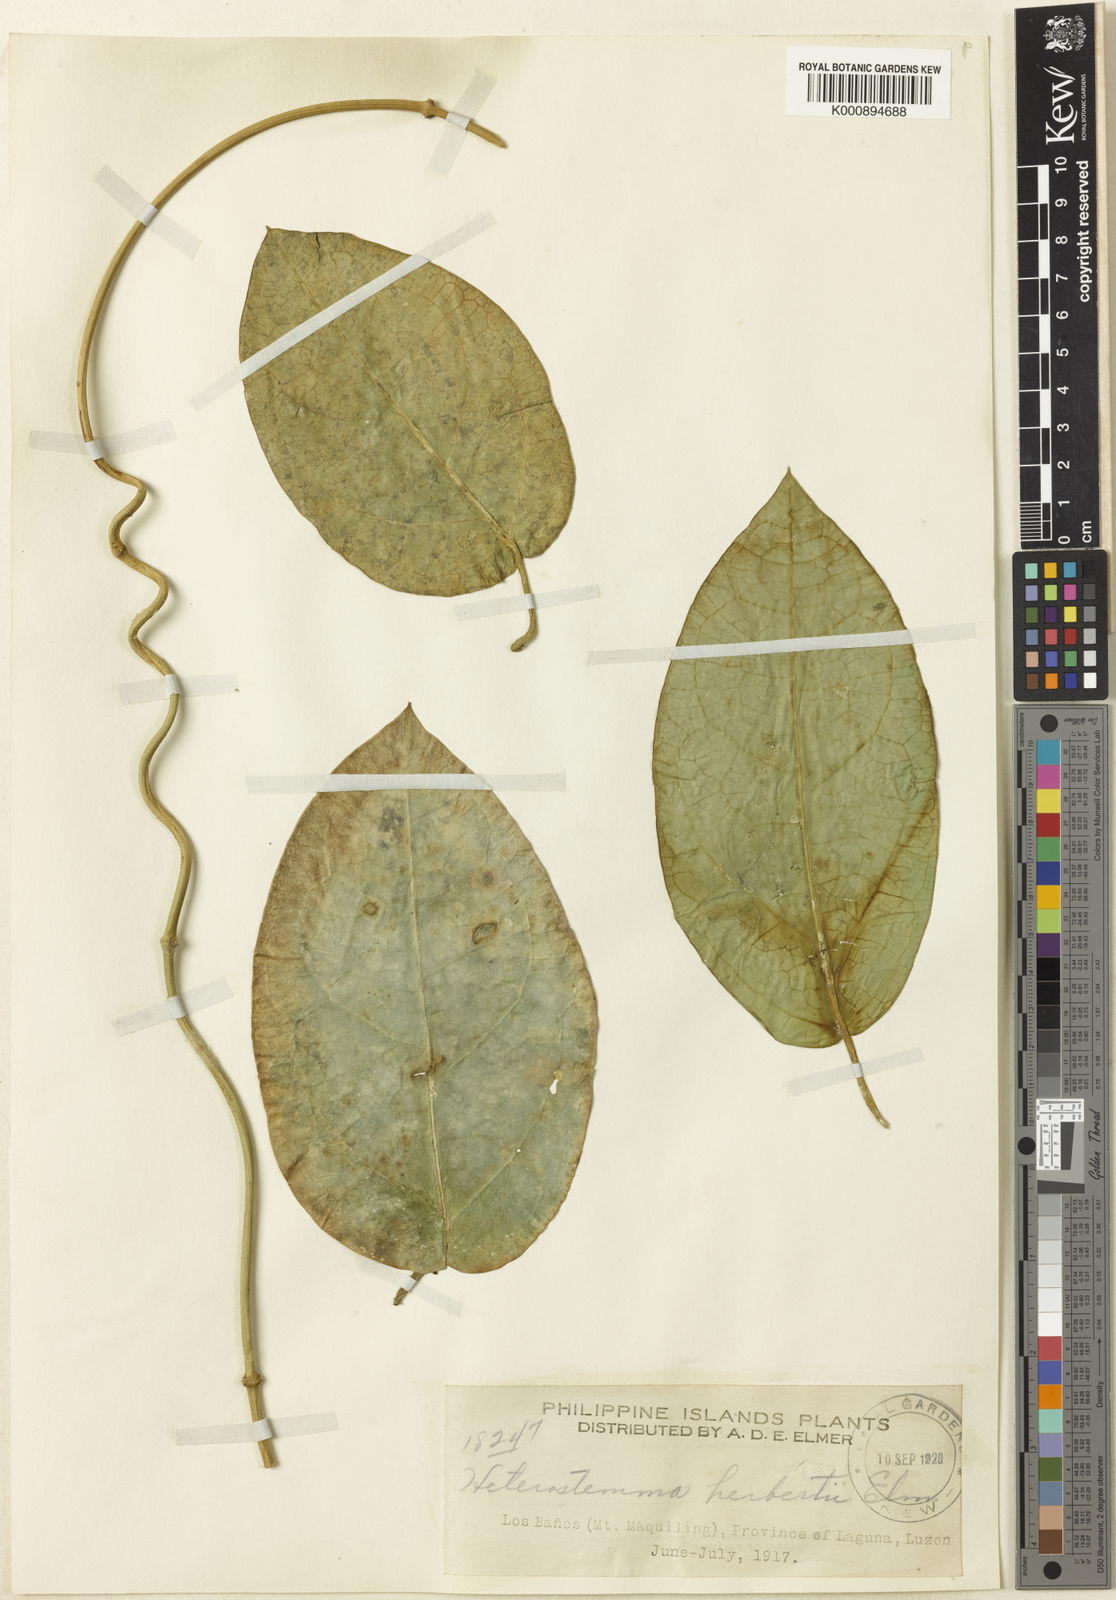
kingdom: Plantae
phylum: Tracheophyta
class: Magnoliopsida
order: Gentianales
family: Apocynaceae
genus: Heterostemma
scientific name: Heterostemma herbertii
